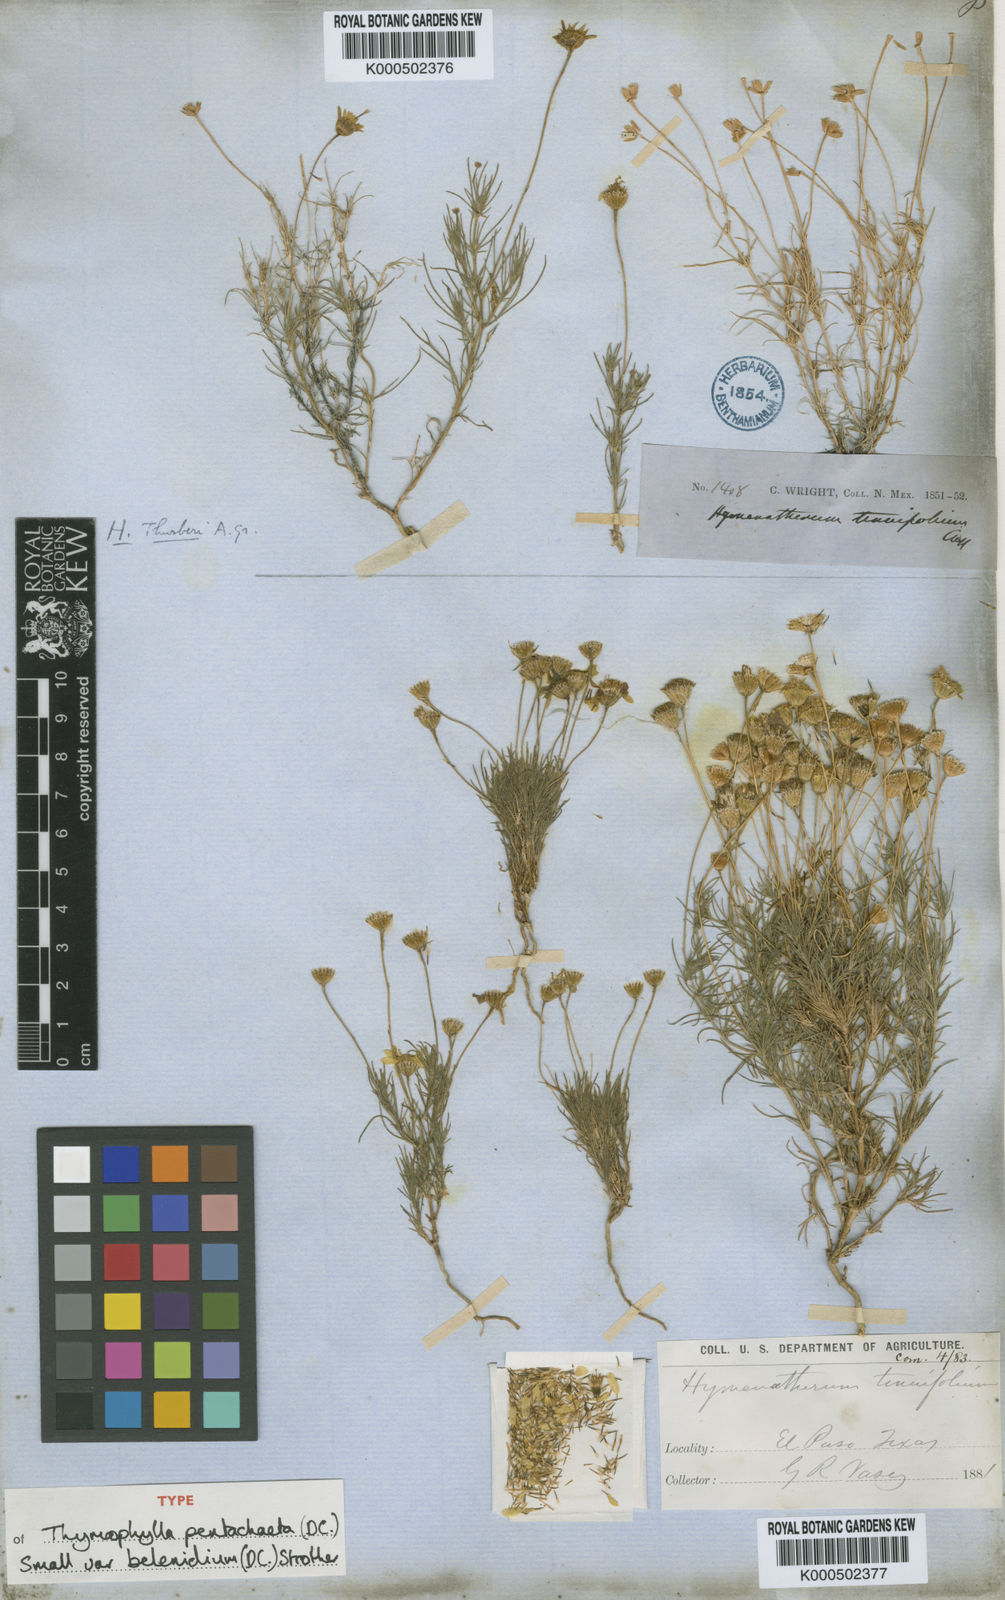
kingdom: Plantae
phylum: Tracheophyta
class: Magnoliopsida
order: Asterales
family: Asteraceae
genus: Thymophylla
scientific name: Thymophylla pentachaeta
